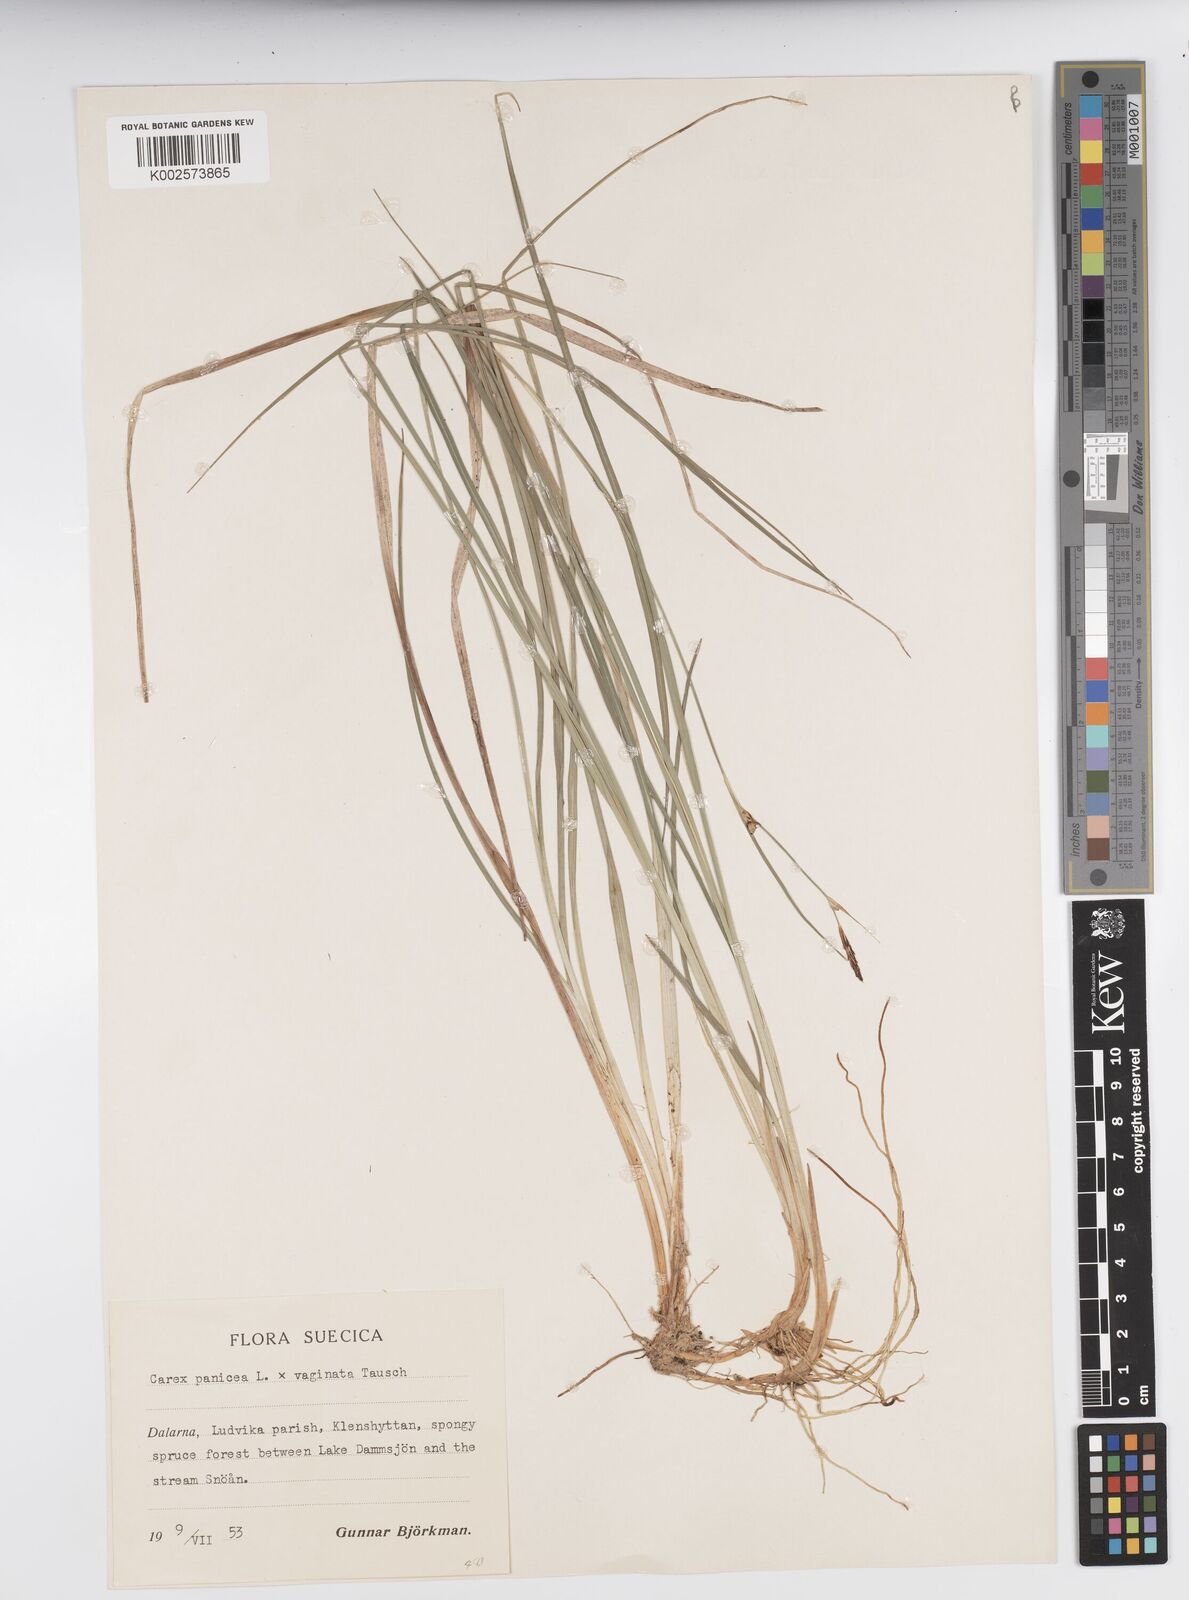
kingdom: Plantae
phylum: Tracheophyta
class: Liliopsida
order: Poales
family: Cyperaceae
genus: Carex
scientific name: Carex panicea
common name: Carnation sedge
